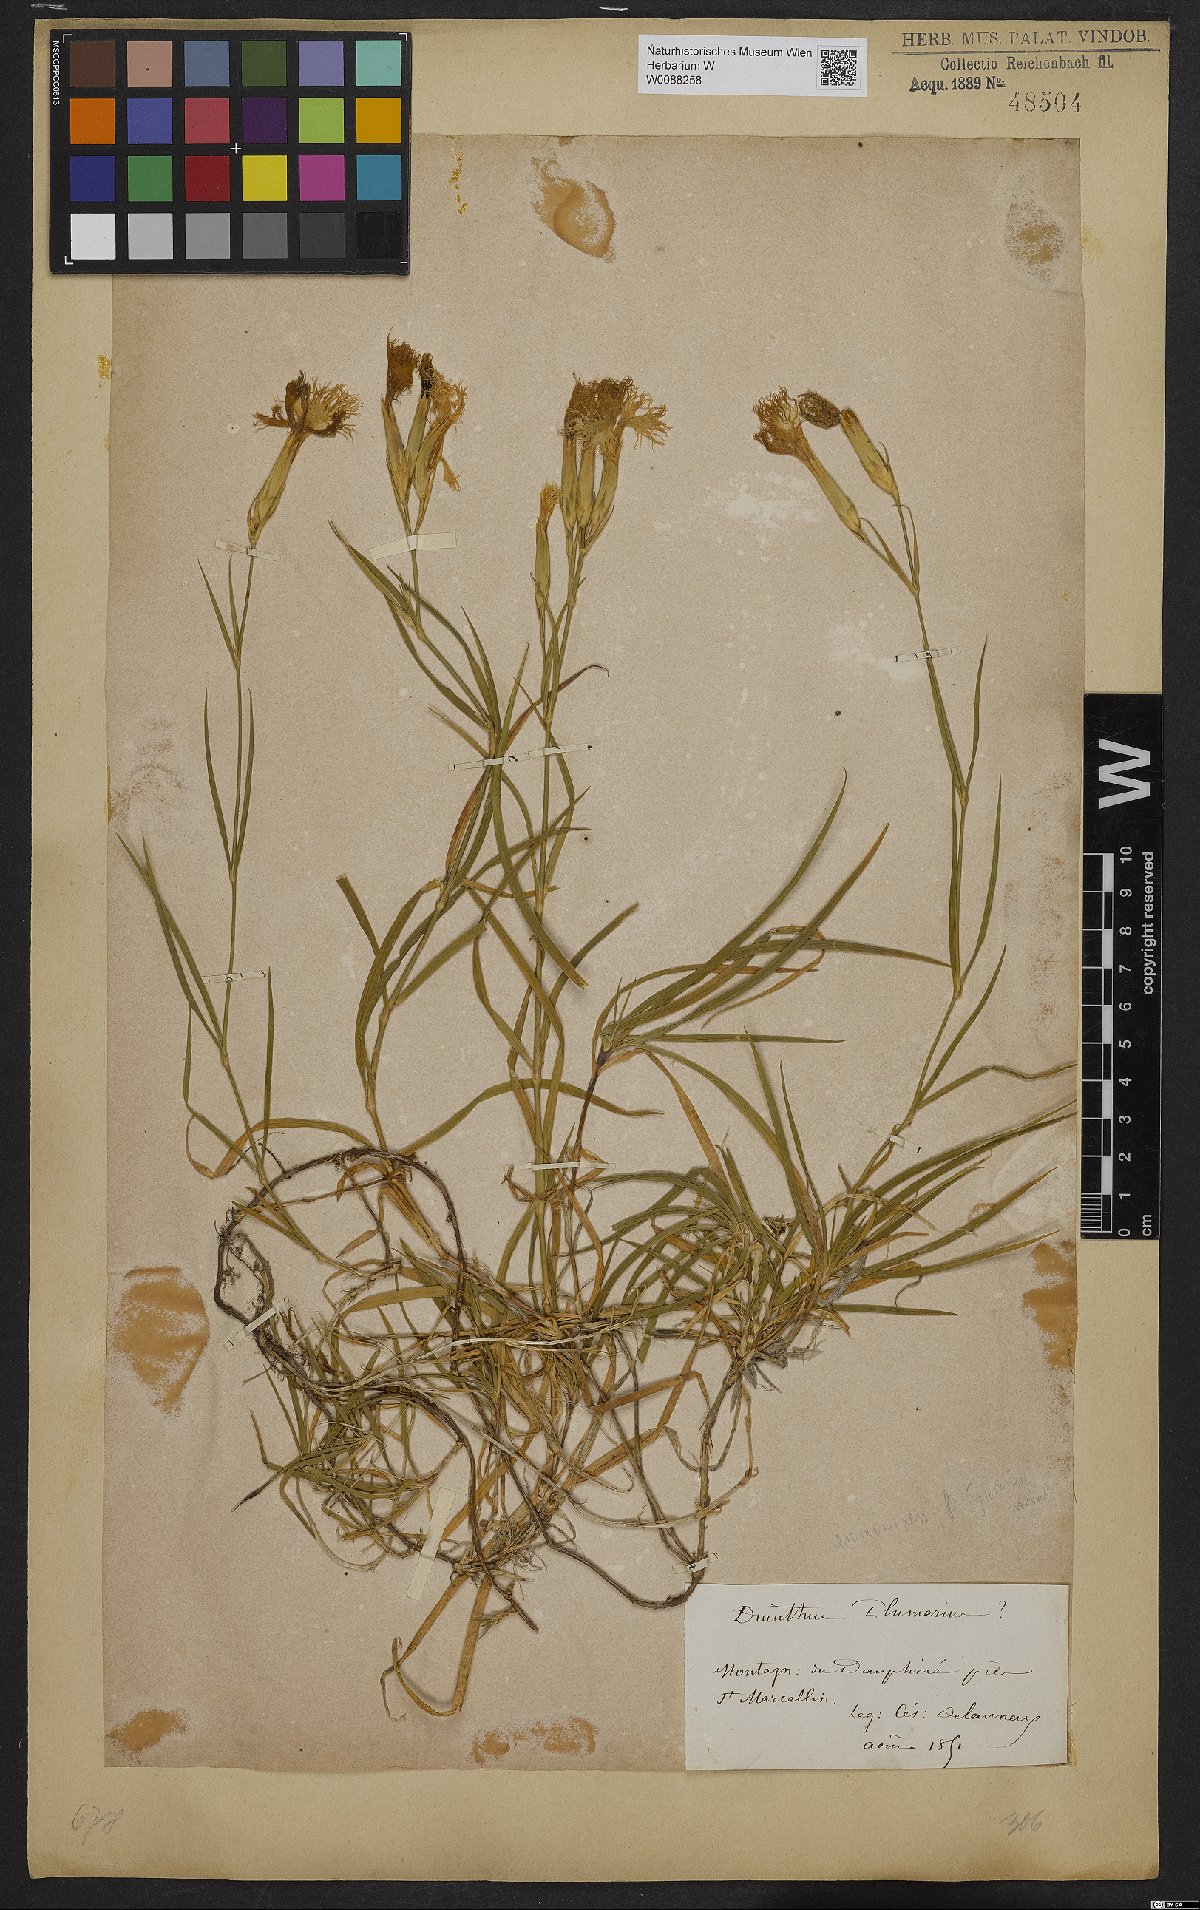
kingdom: Plantae
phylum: Tracheophyta
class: Magnoliopsida
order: Caryophyllales
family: Caryophyllaceae
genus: Dianthus
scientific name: Dianthus plumarius
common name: Pink
